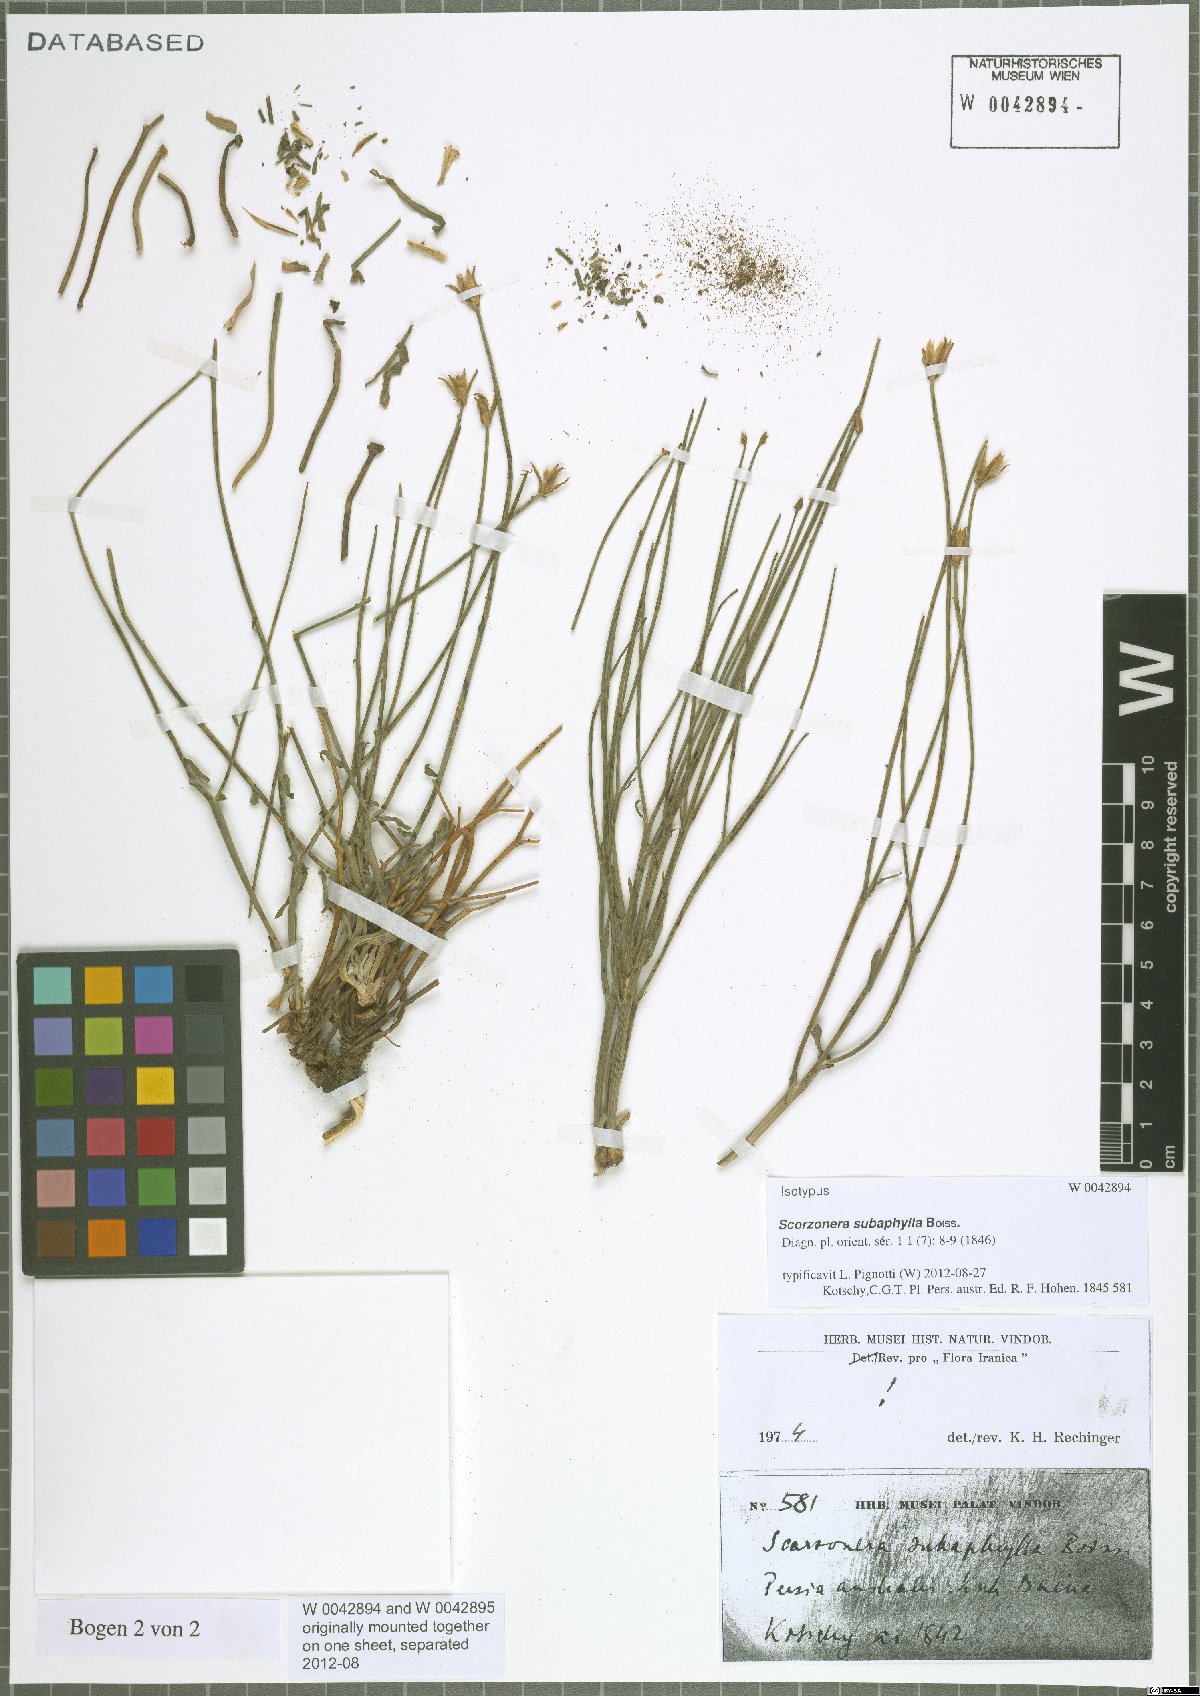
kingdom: Plantae
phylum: Tracheophyta
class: Magnoliopsida
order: Asterales
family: Asteraceae
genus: Scorzonera
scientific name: Scorzonera subaphylla
